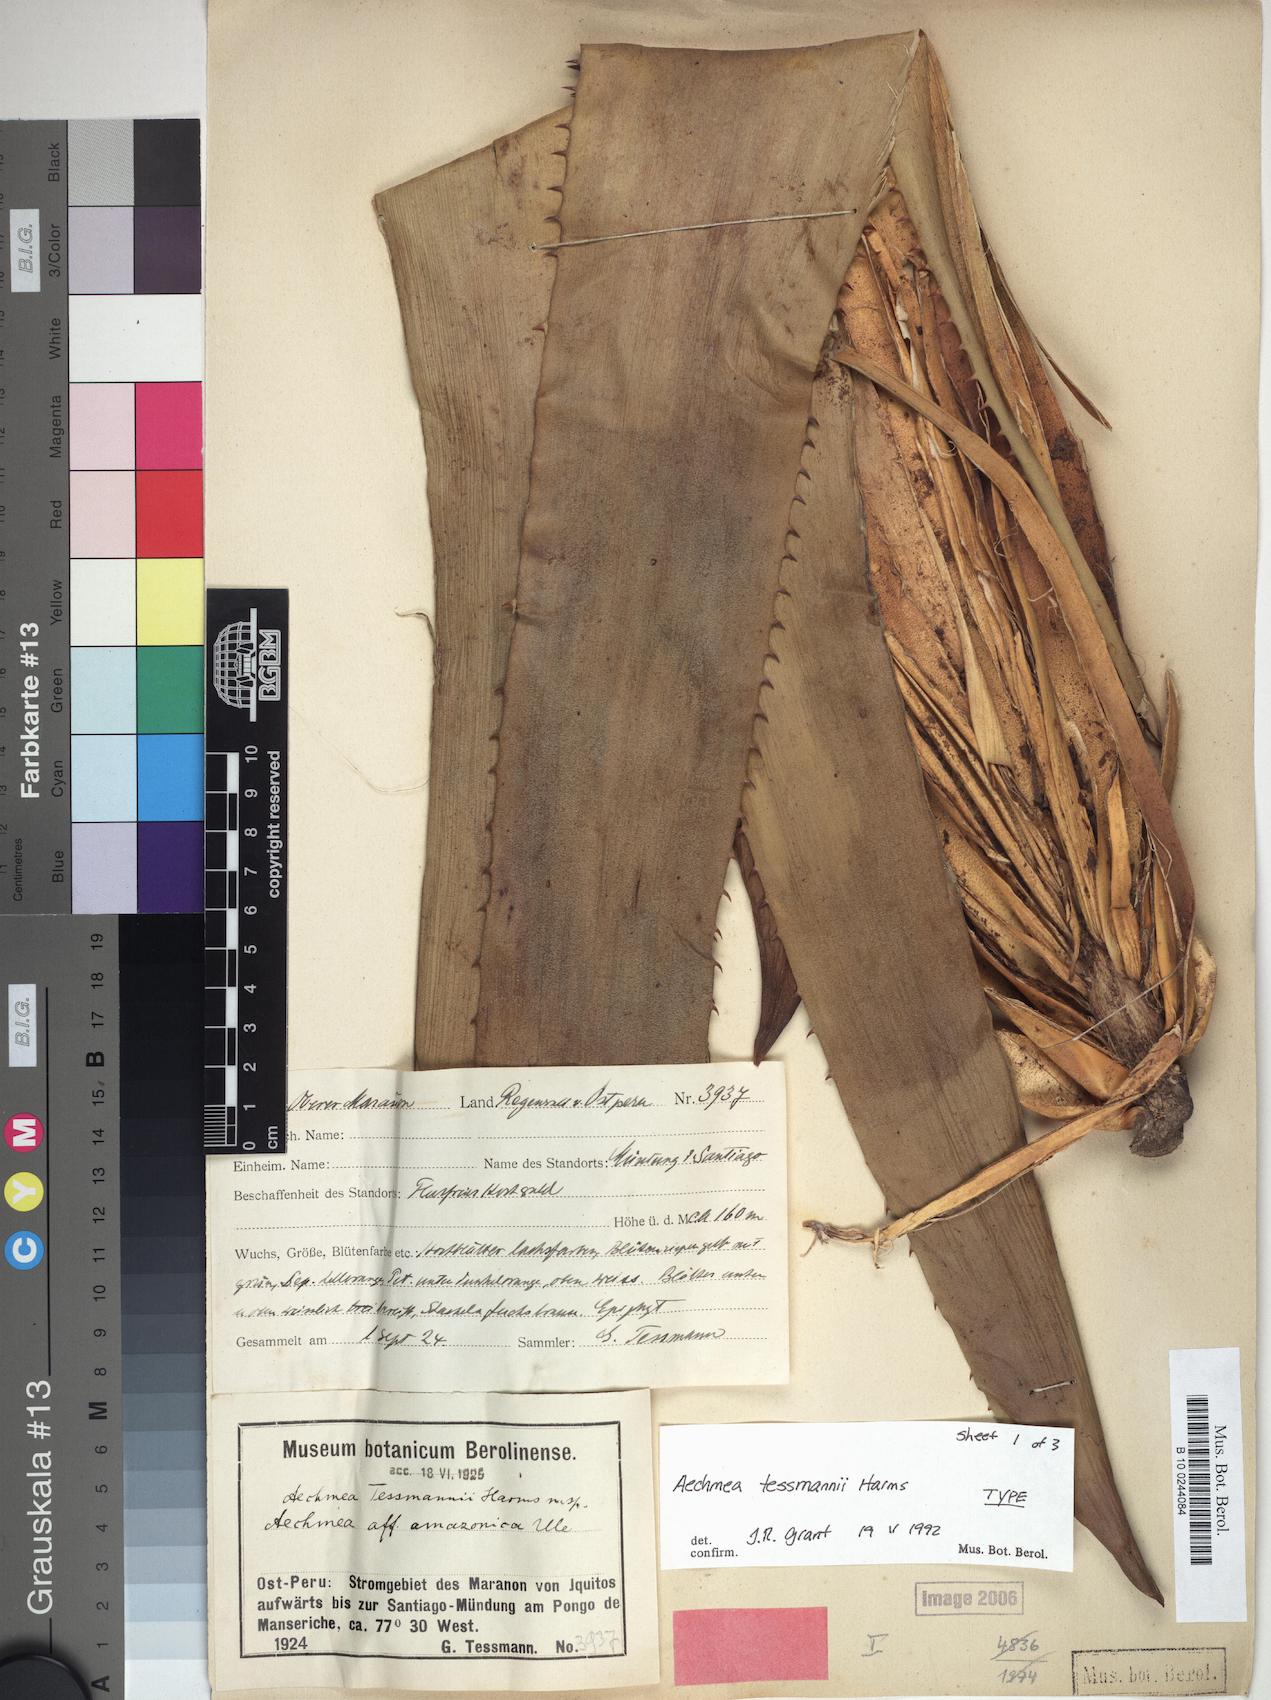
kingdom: Plantae
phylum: Tracheophyta
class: Liliopsida
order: Poales
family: Bromeliaceae
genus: Aechmea
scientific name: Aechmea tessmannii
